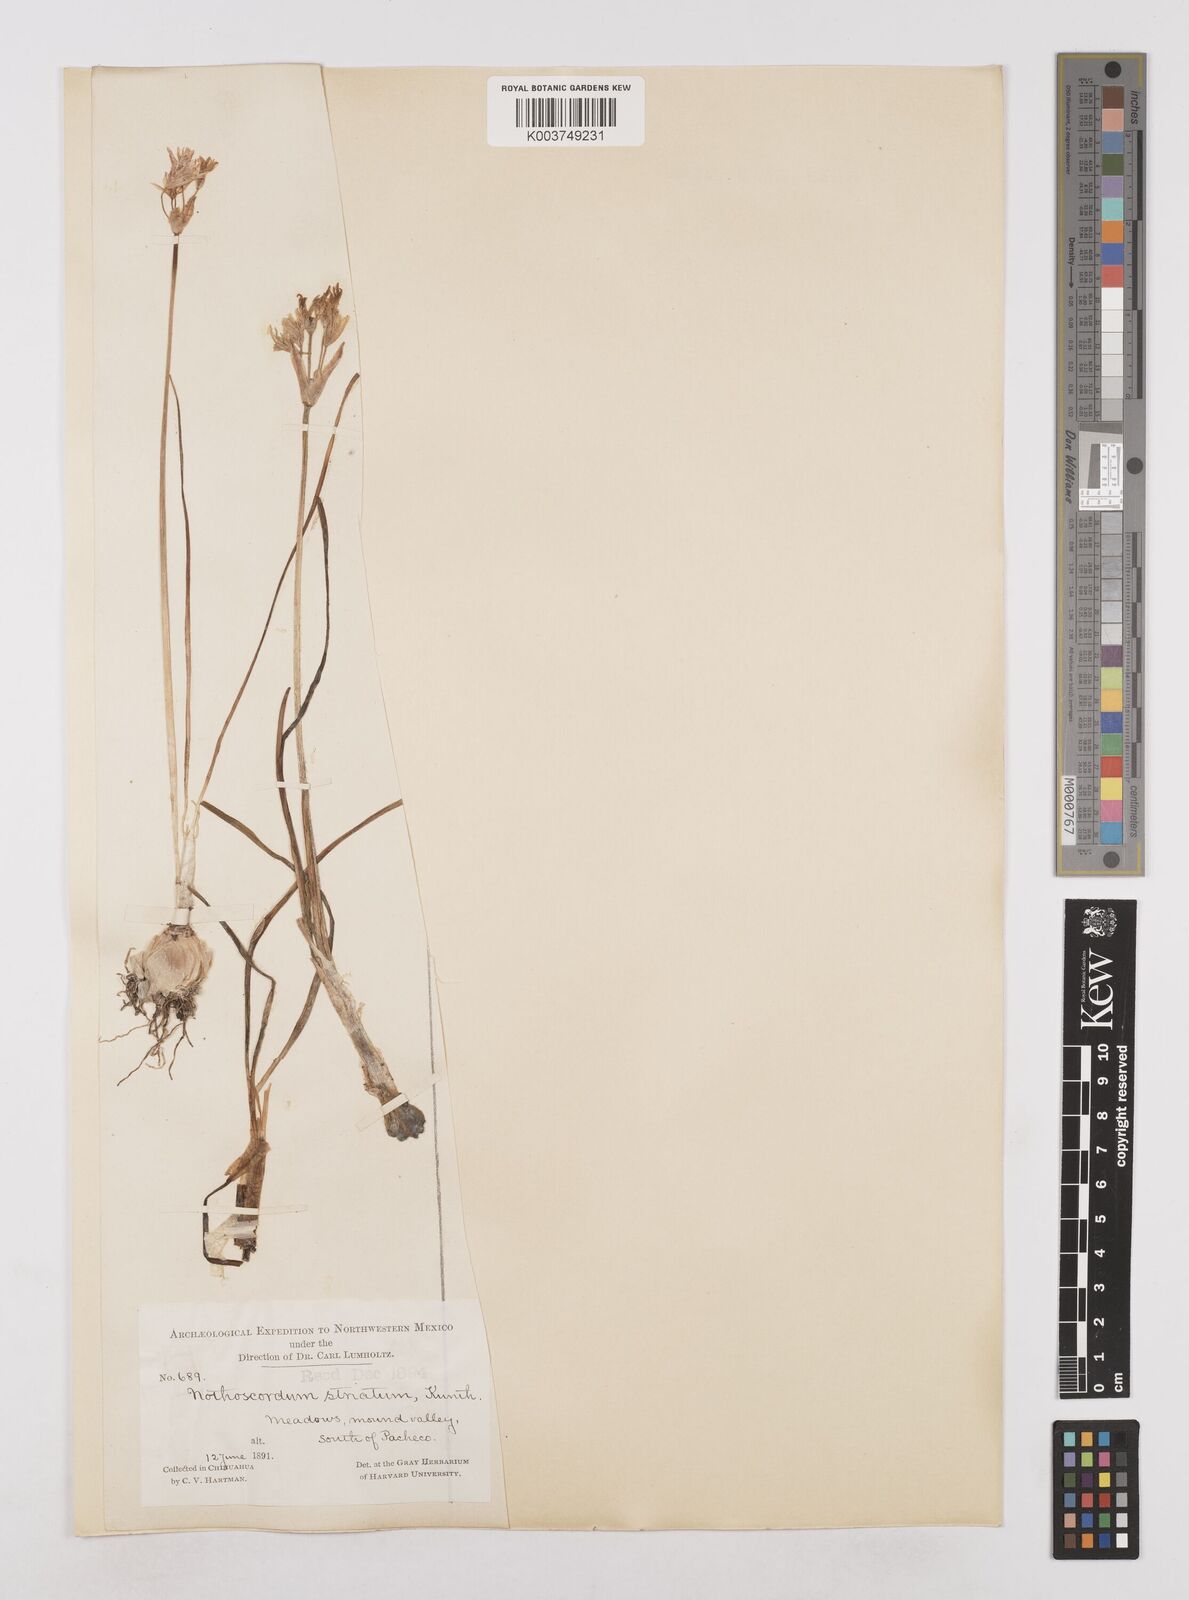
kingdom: Plantae
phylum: Tracheophyta
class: Liliopsida
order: Asparagales
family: Amaryllidaceae
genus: Nothoscordum
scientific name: Nothoscordum bivalve
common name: Crow-poison
